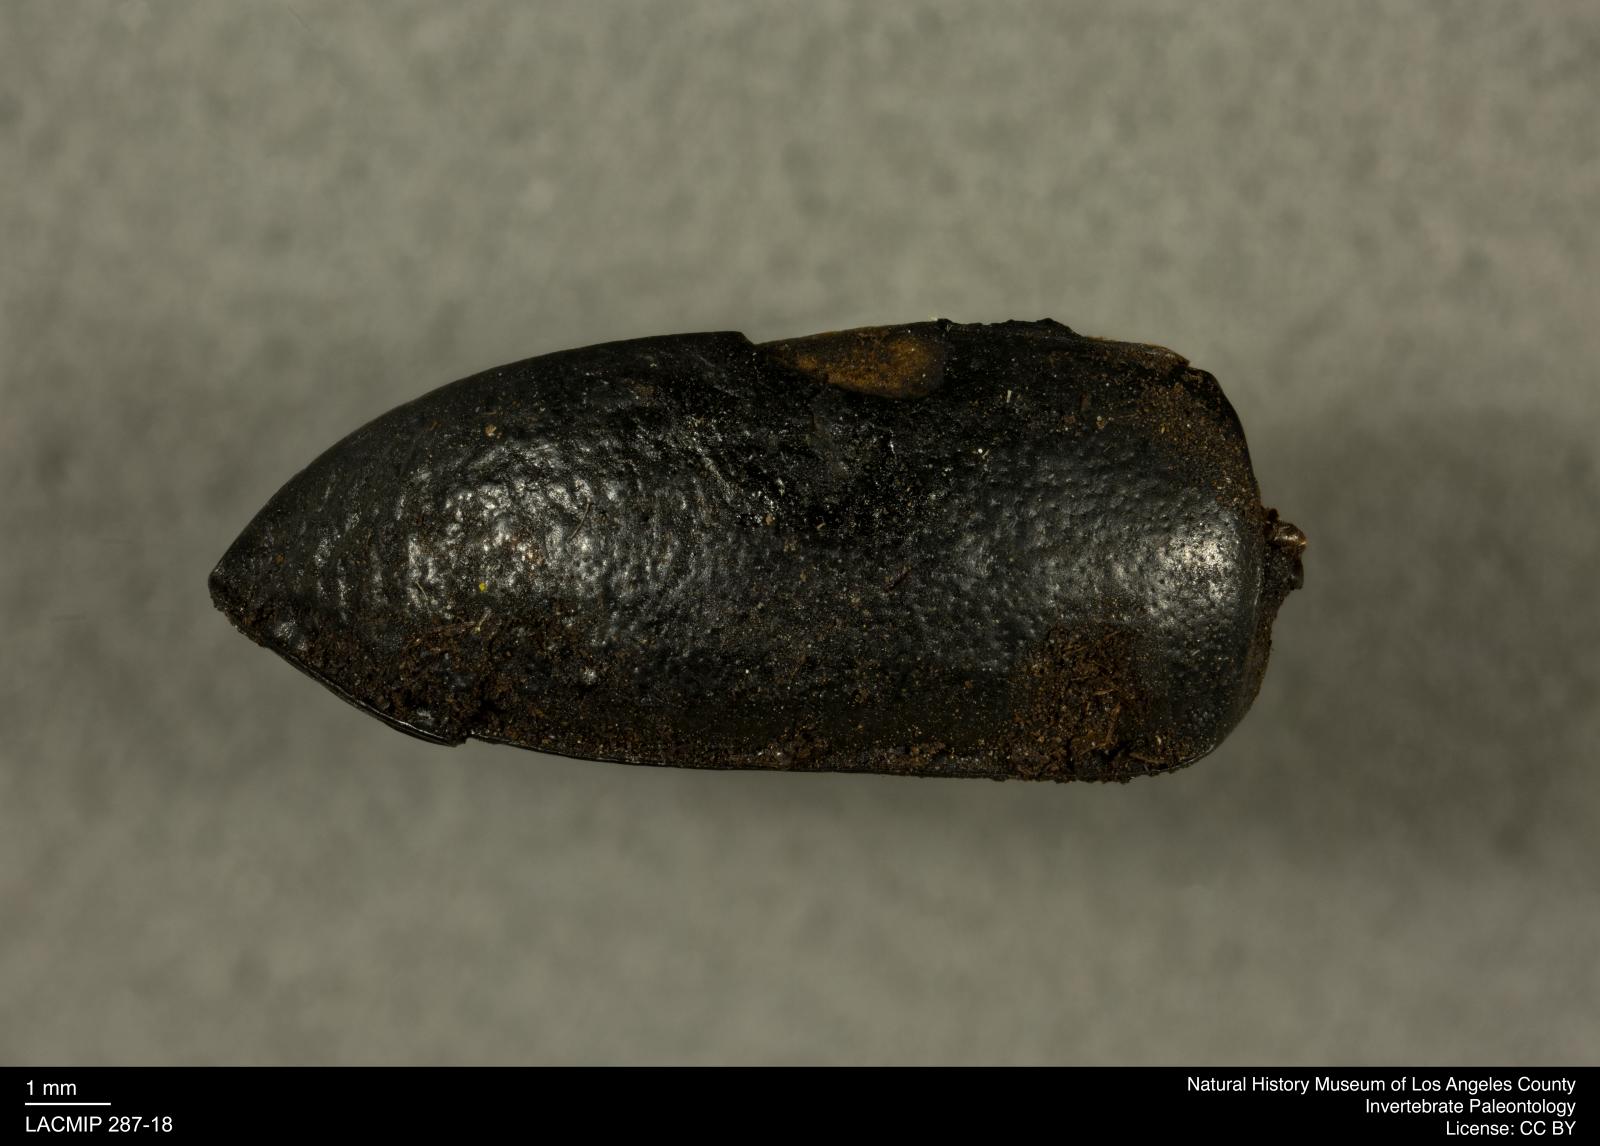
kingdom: Animalia
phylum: Arthropoda
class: Insecta
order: Coleoptera
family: Tenebrionidae
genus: Coniontis
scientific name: Coniontis abdominalis
